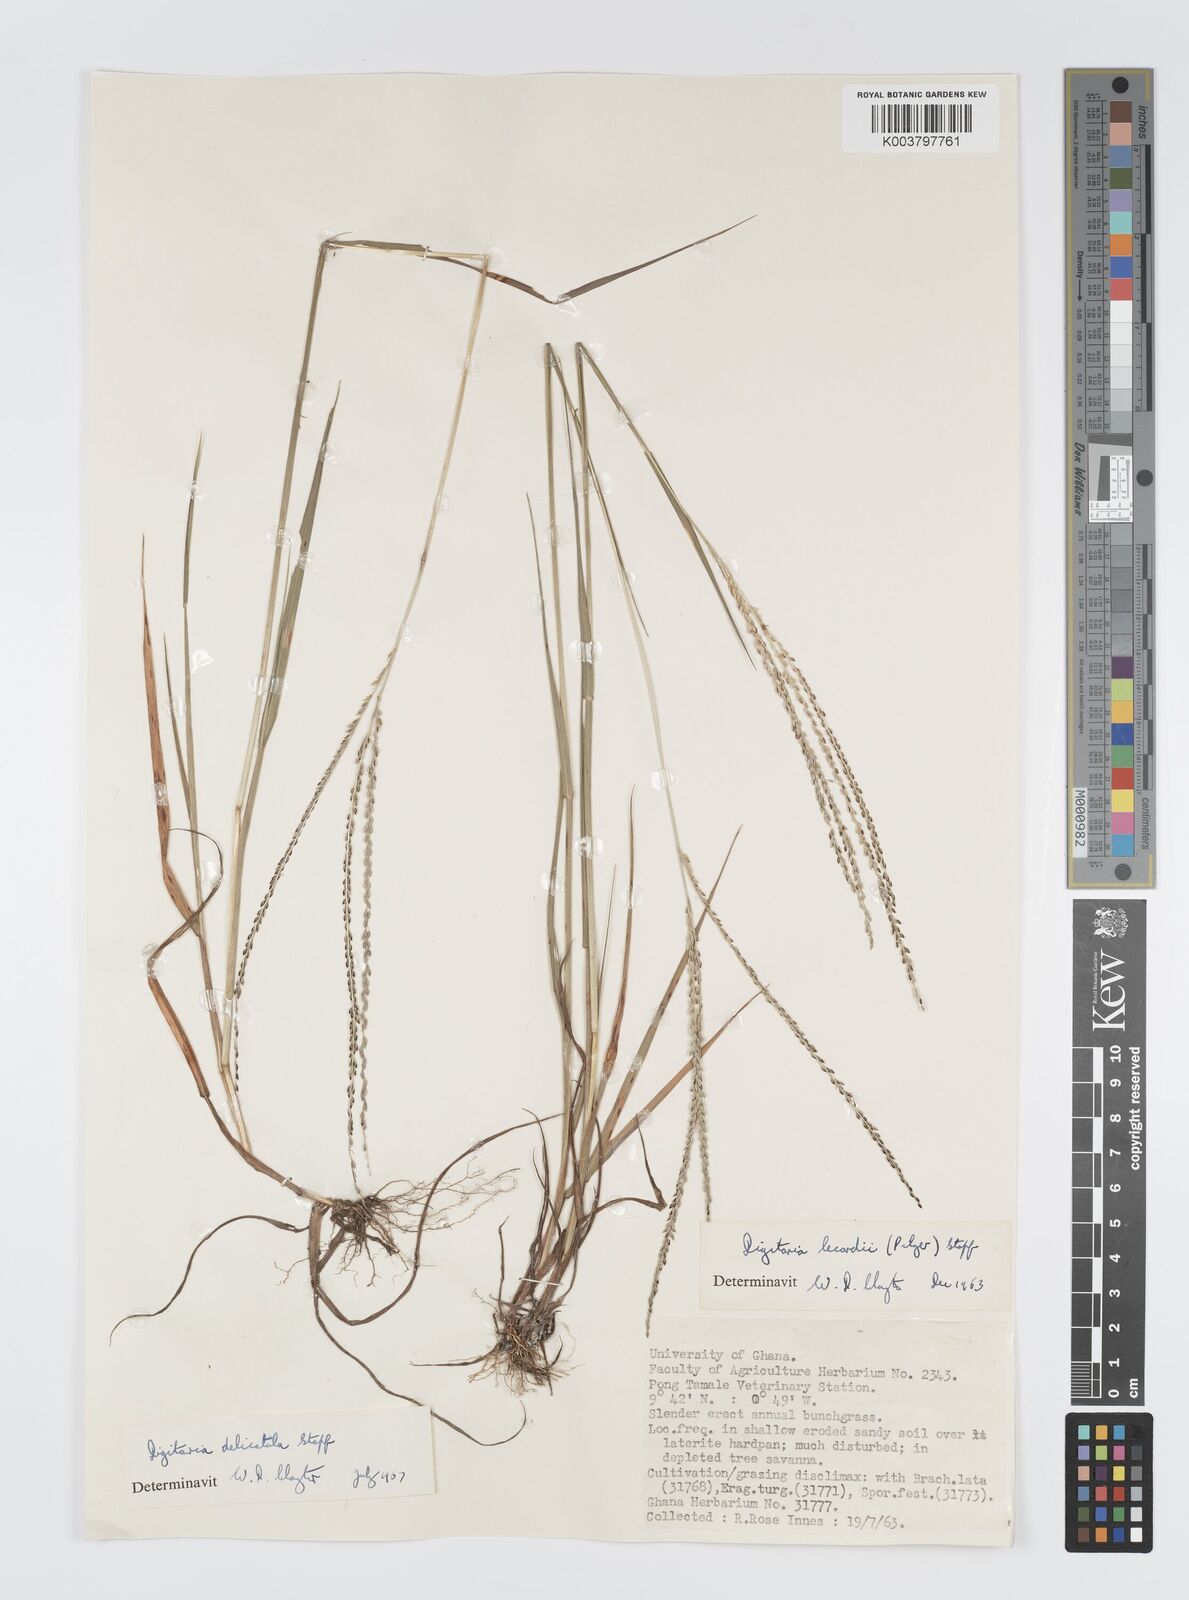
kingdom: Plantae
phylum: Tracheophyta
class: Liliopsida
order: Poales
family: Poaceae
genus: Digitaria
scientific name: Digitaria delicatula
